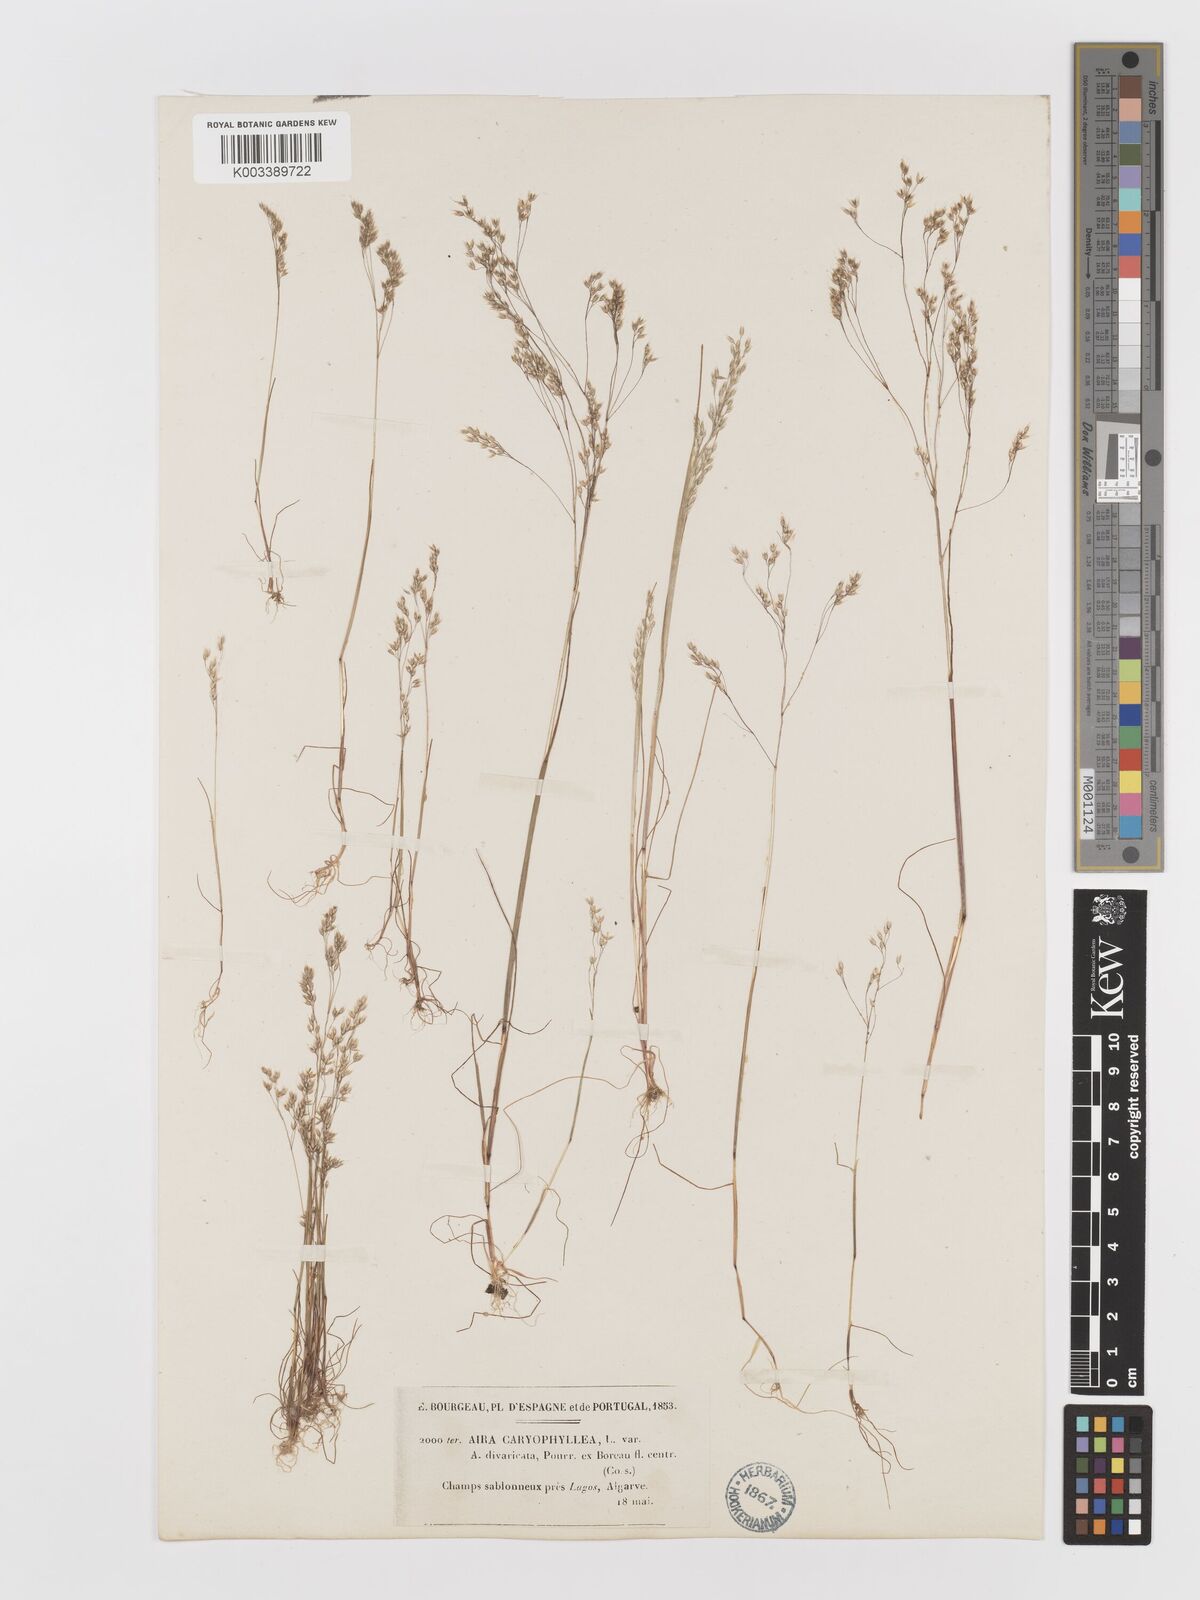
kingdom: Plantae
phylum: Tracheophyta
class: Liliopsida
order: Poales
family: Poaceae
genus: Aira
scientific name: Aira caryophyllea
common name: Silver hairgrass
